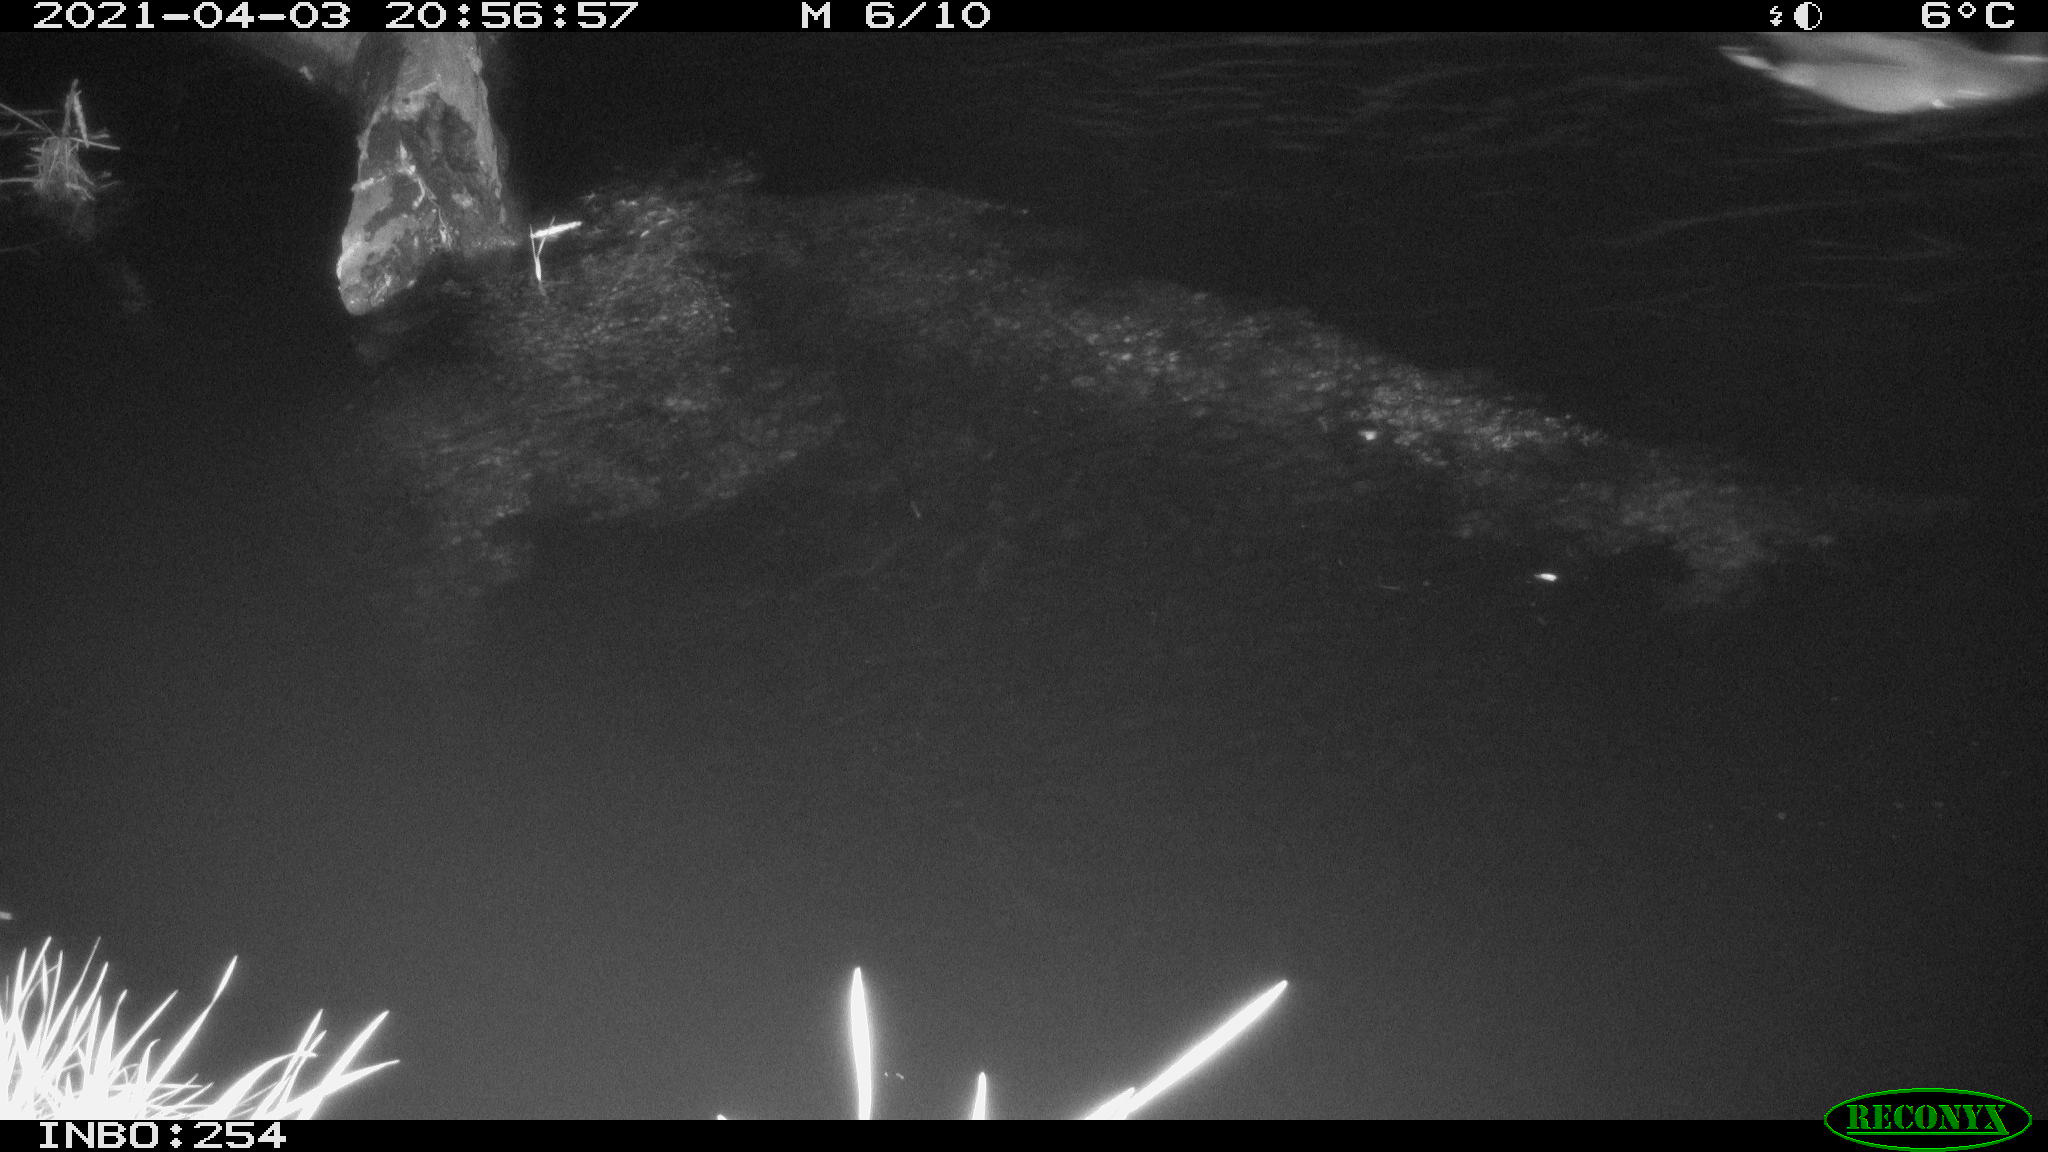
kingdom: Animalia
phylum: Chordata
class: Aves
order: Anseriformes
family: Anatidae
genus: Anas
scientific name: Anas platyrhynchos
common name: Mallard
